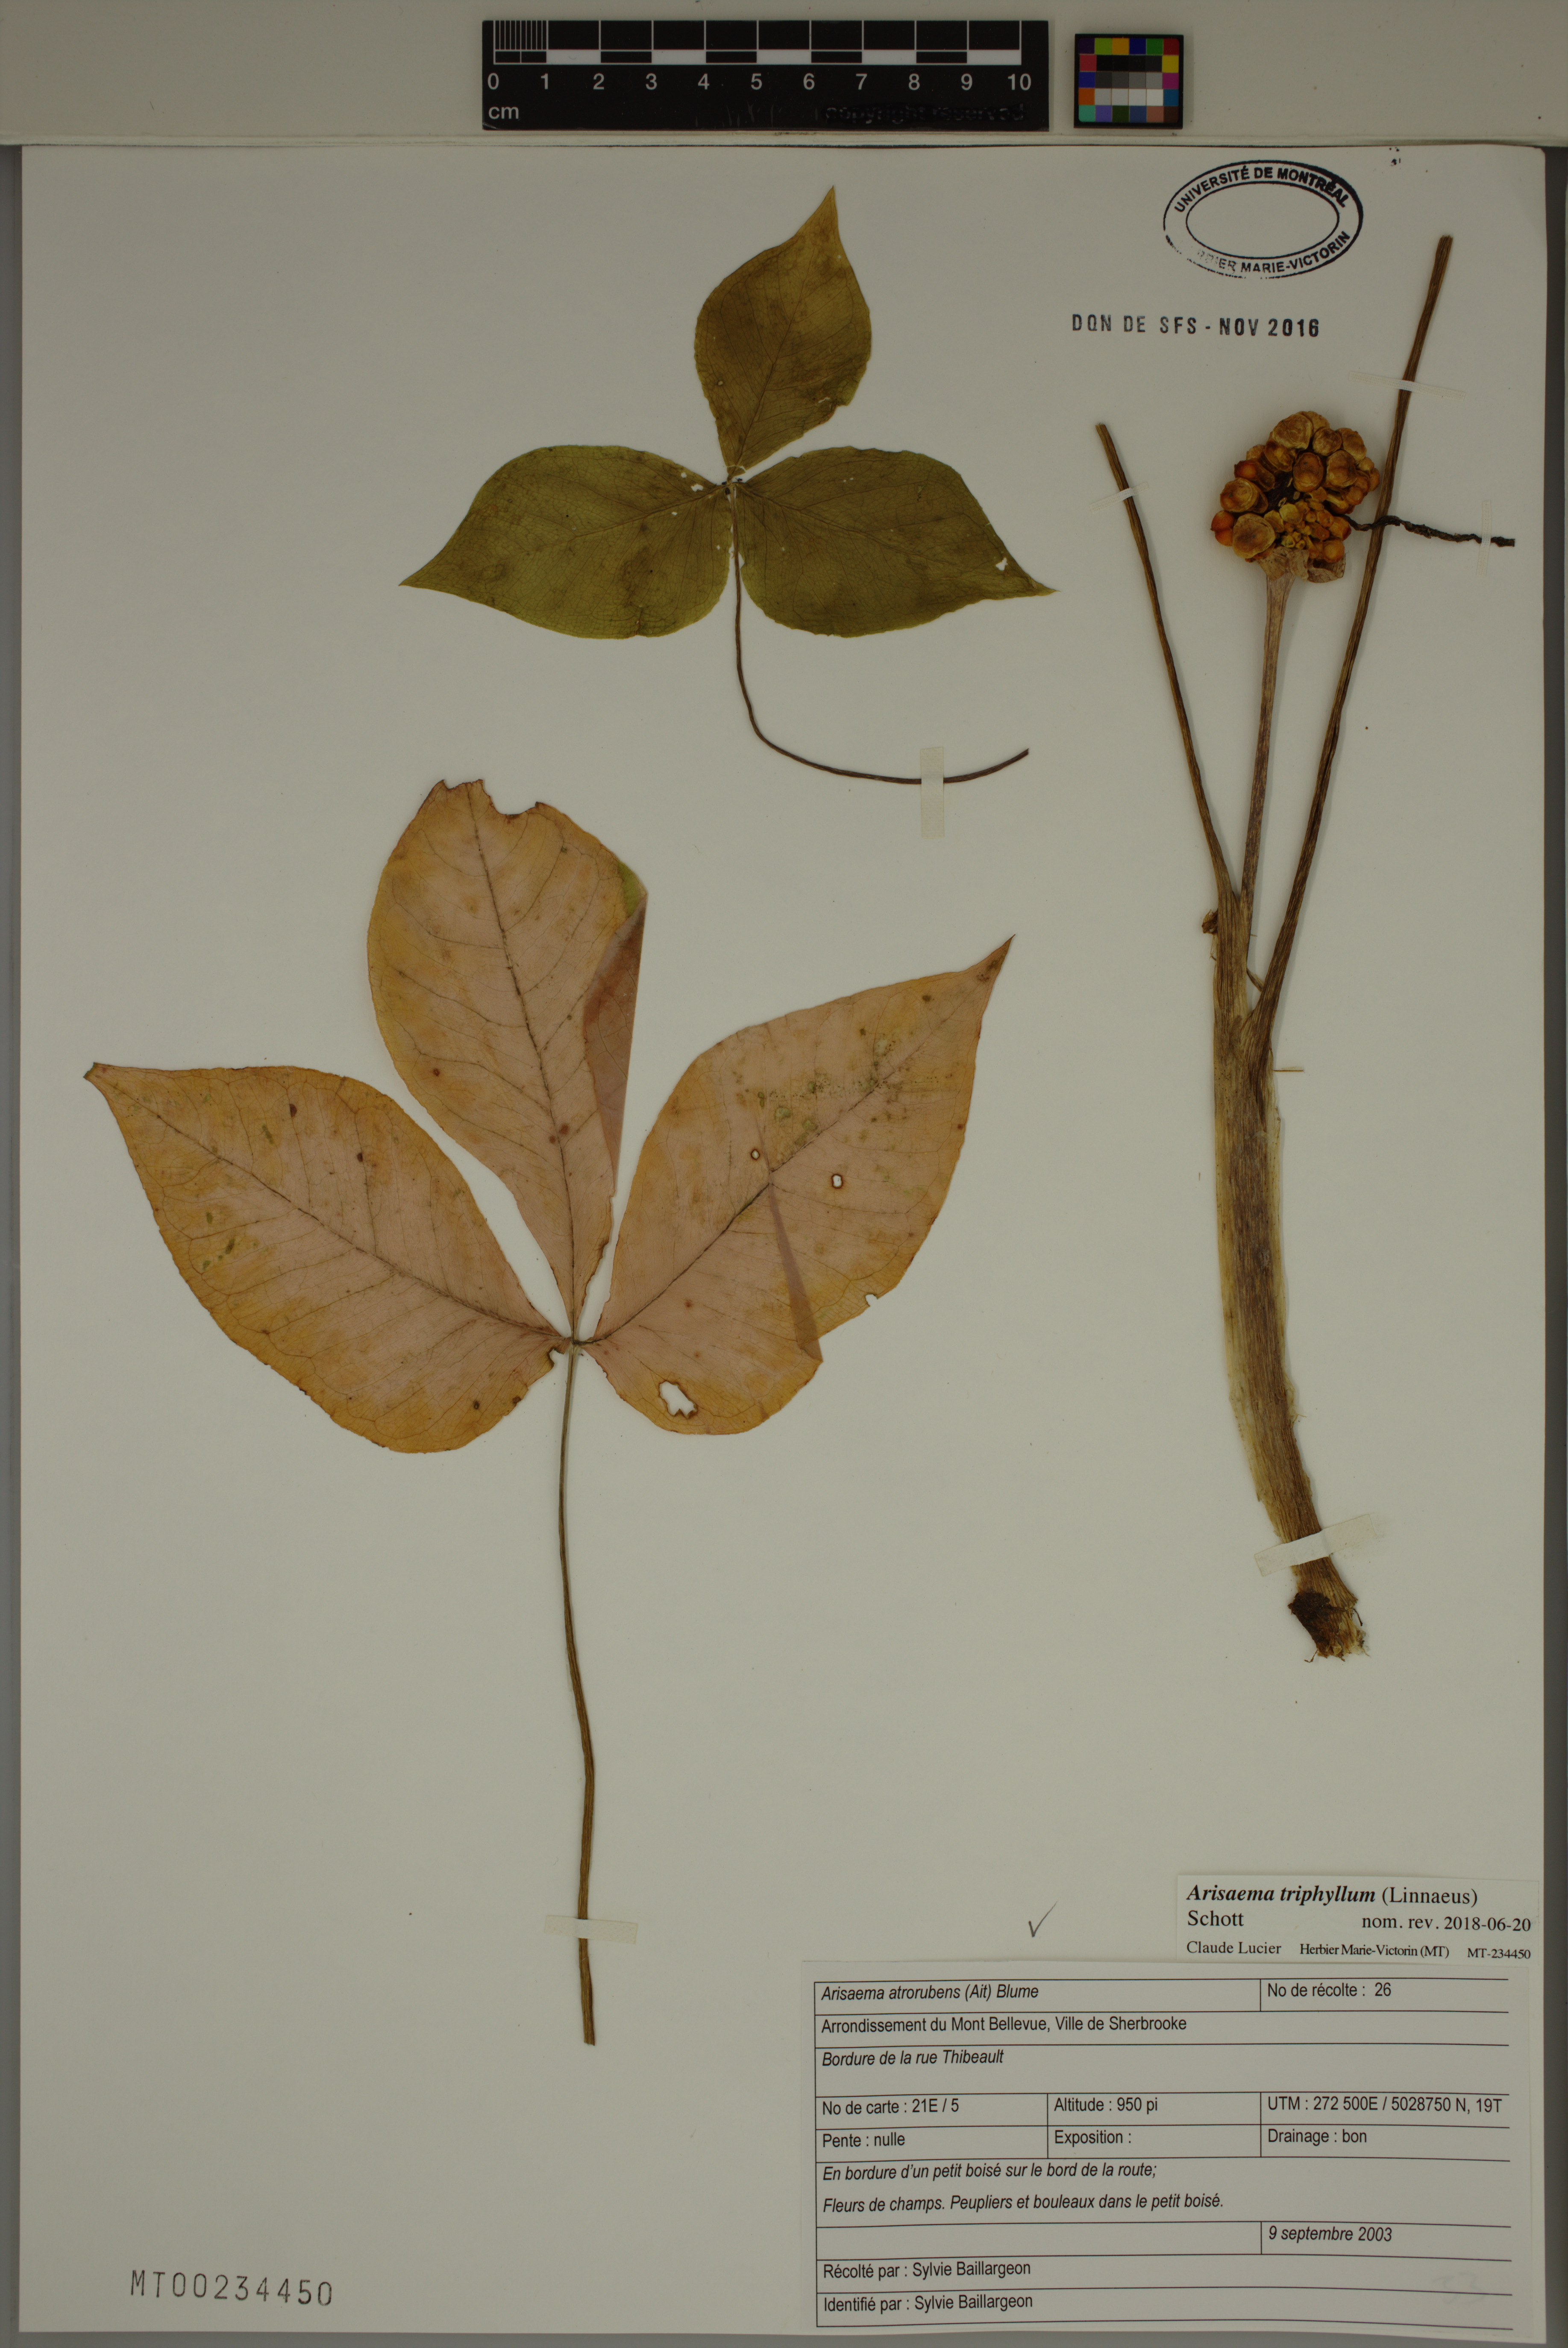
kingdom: Plantae
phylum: Tracheophyta
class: Liliopsida
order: Alismatales
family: Araceae
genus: Arisaema
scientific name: Arisaema triphyllum
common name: Jack-in-the-pulpit
